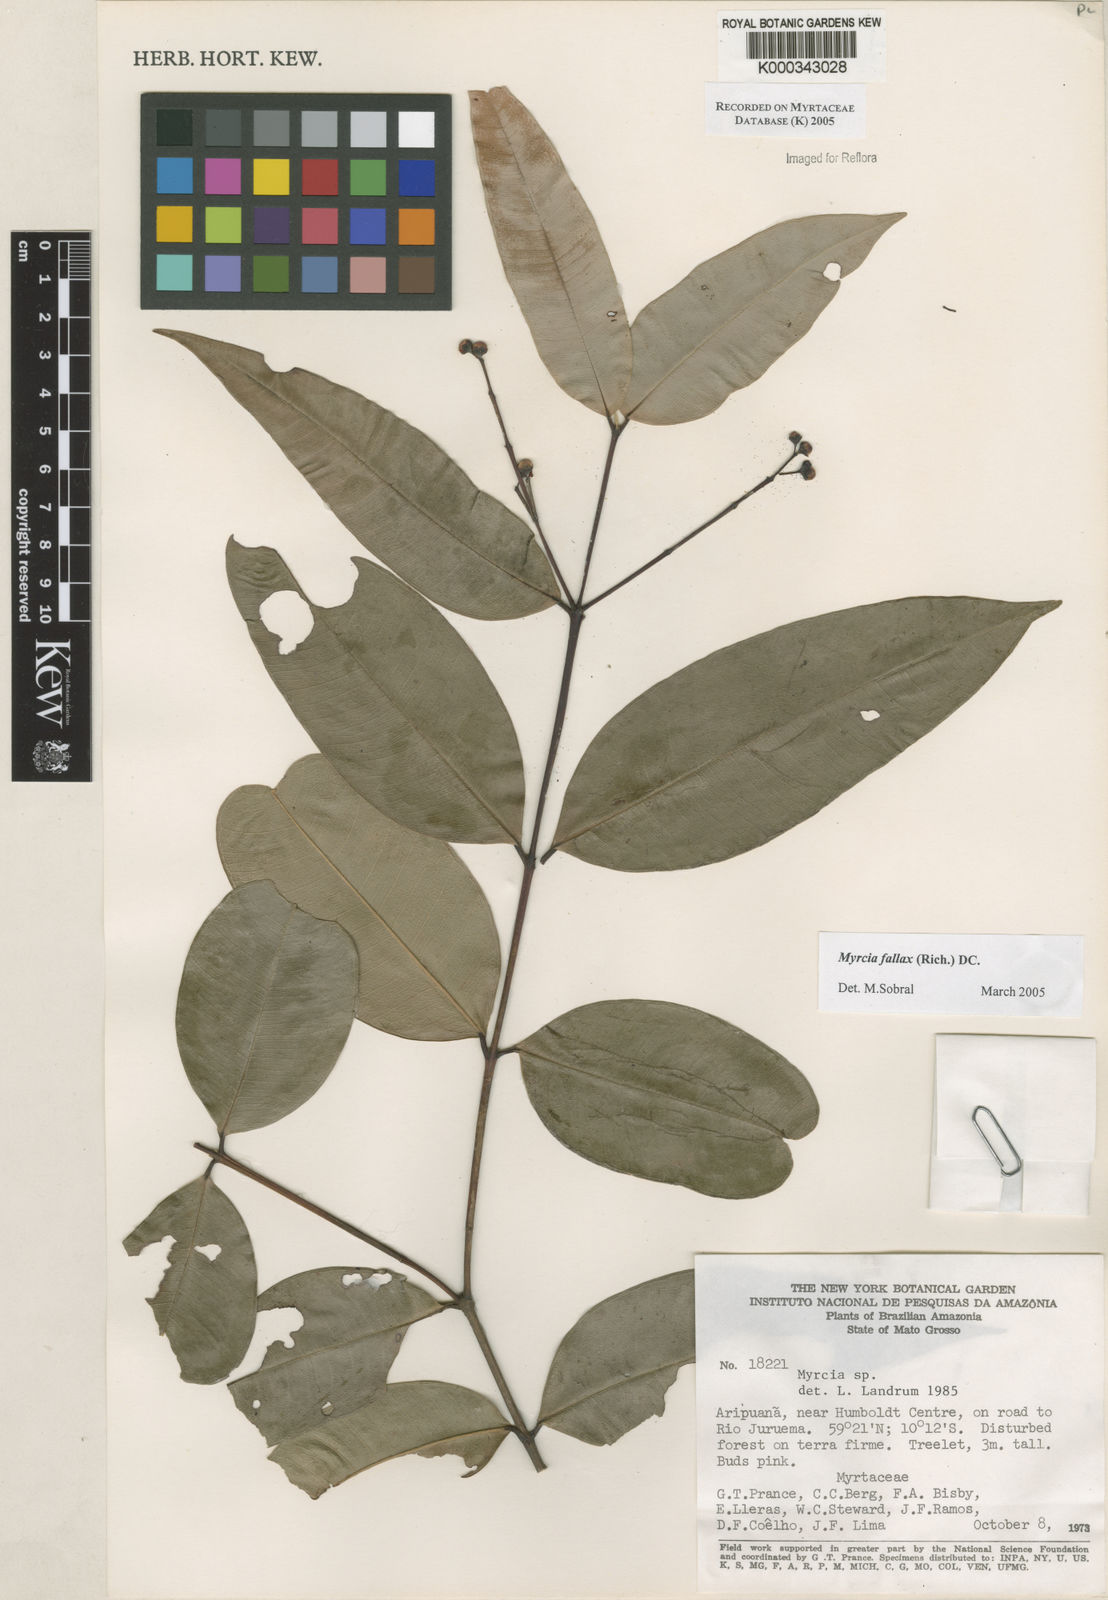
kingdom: Plantae
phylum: Tracheophyta
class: Magnoliopsida
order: Myrtales
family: Myrtaceae
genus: Myrcia
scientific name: Myrcia splendens
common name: Surinam cherry
